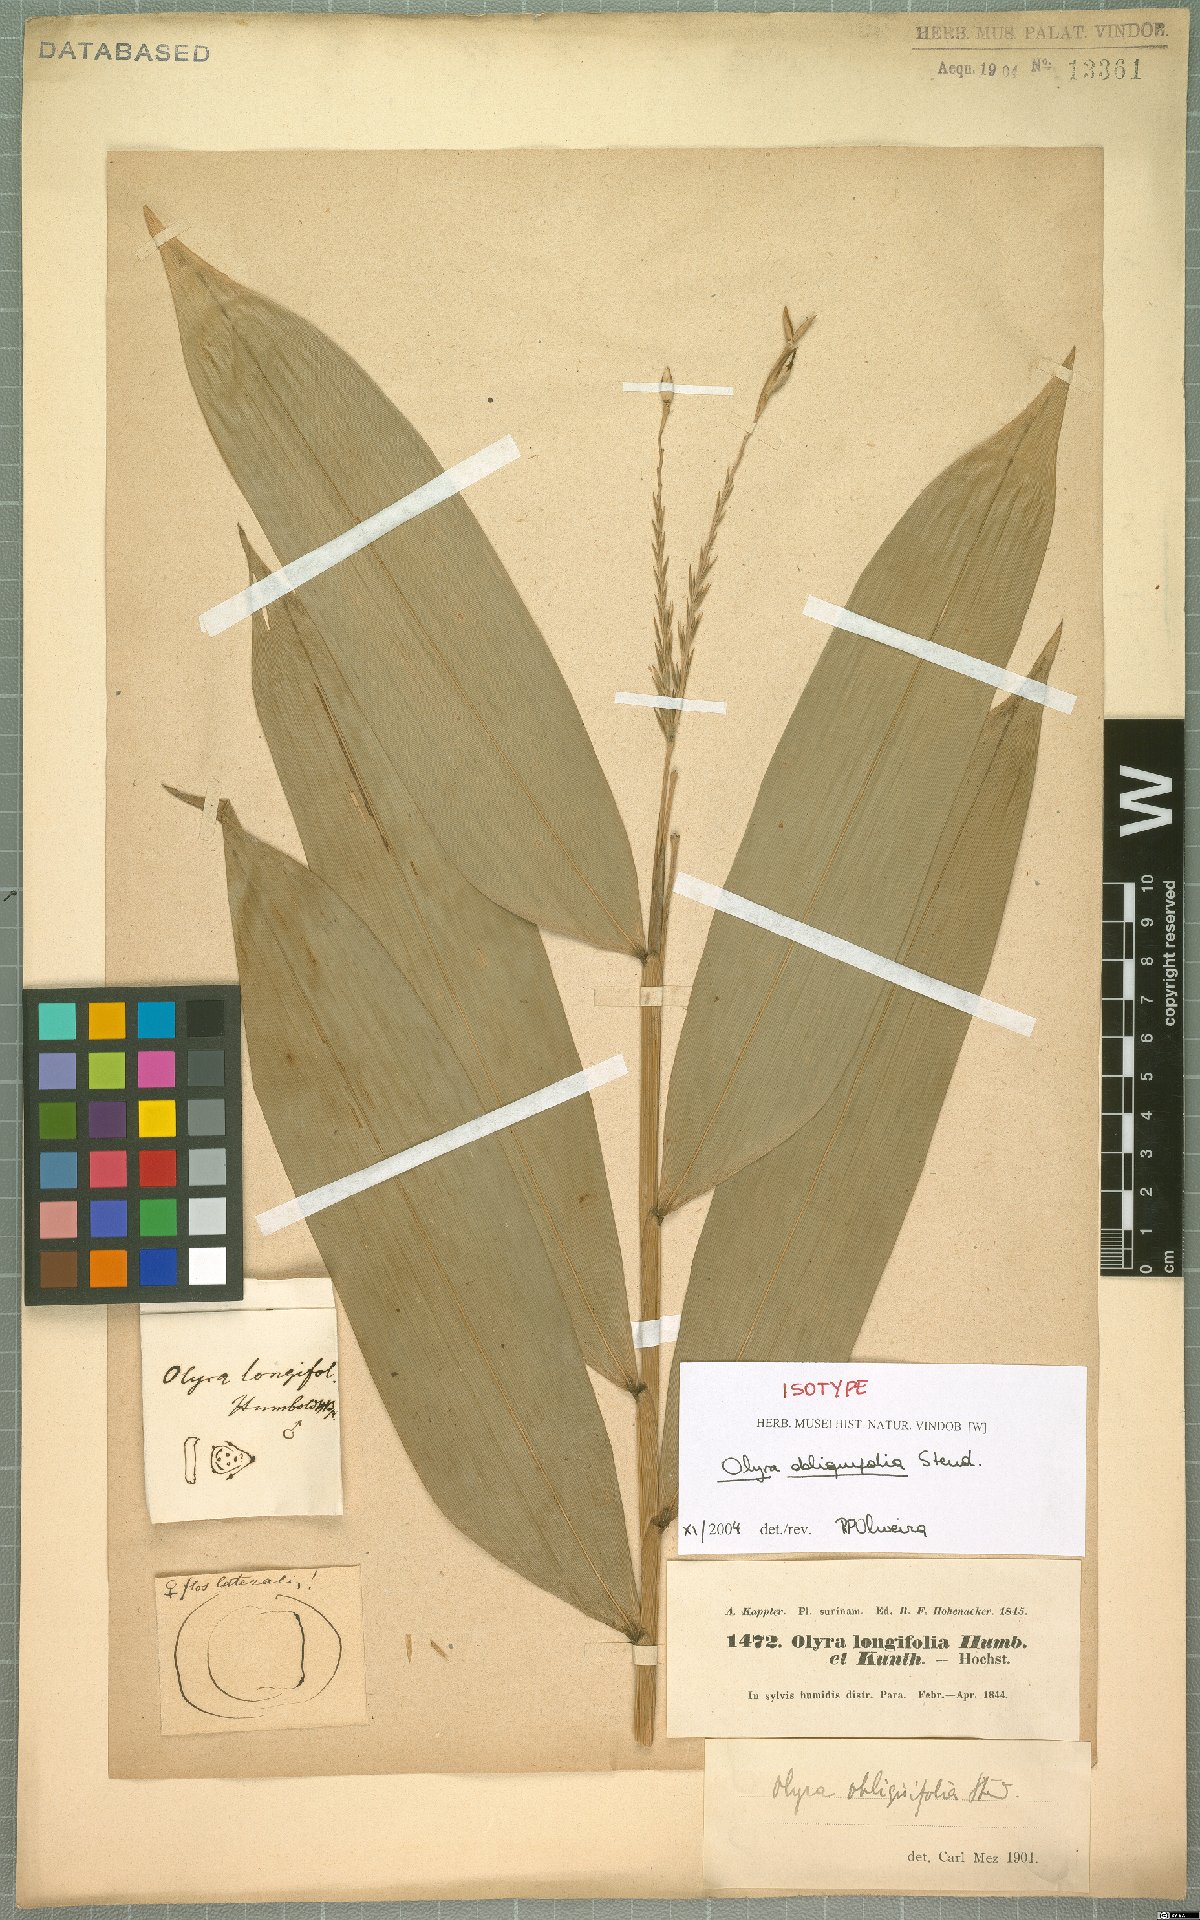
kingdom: Plantae
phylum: Tracheophyta
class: Liliopsida
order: Poales
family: Poaceae
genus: Olyra
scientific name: Olyra obliquifolia
